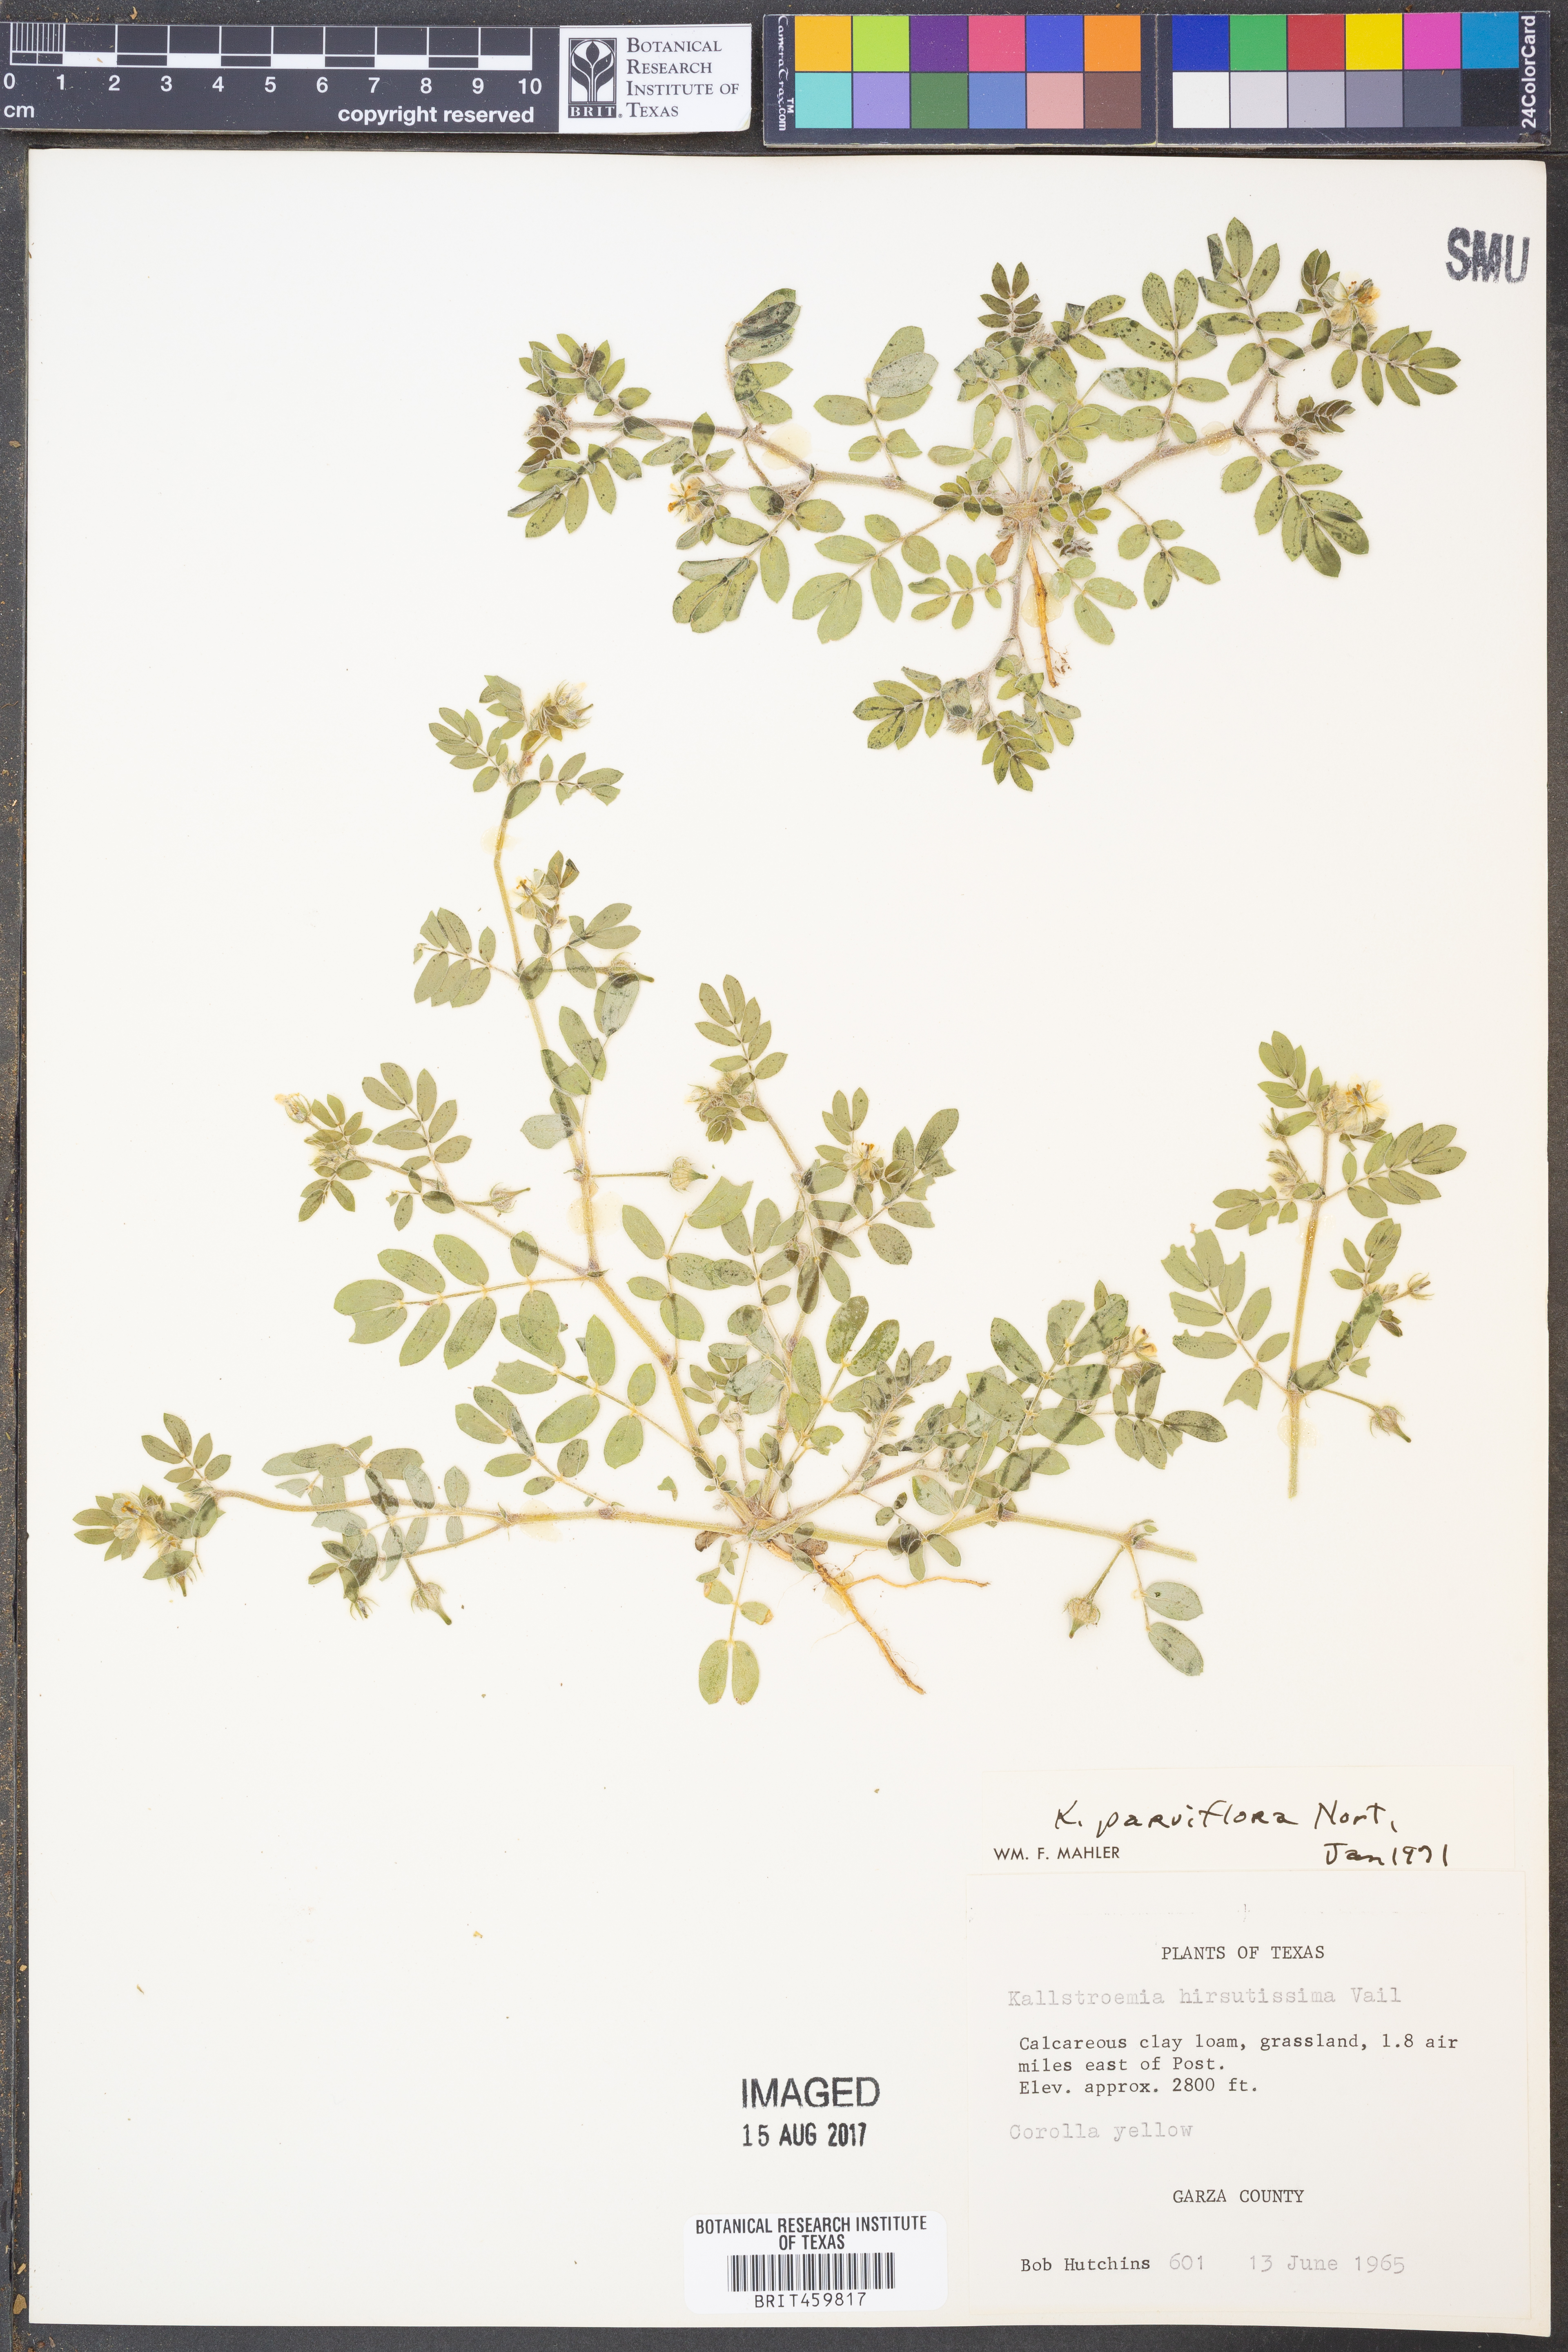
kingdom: Plantae
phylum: Tracheophyta
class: Magnoliopsida
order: Zygophyllales
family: Zygophyllaceae
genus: Kallstroemia
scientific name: Kallstroemia parviflora
